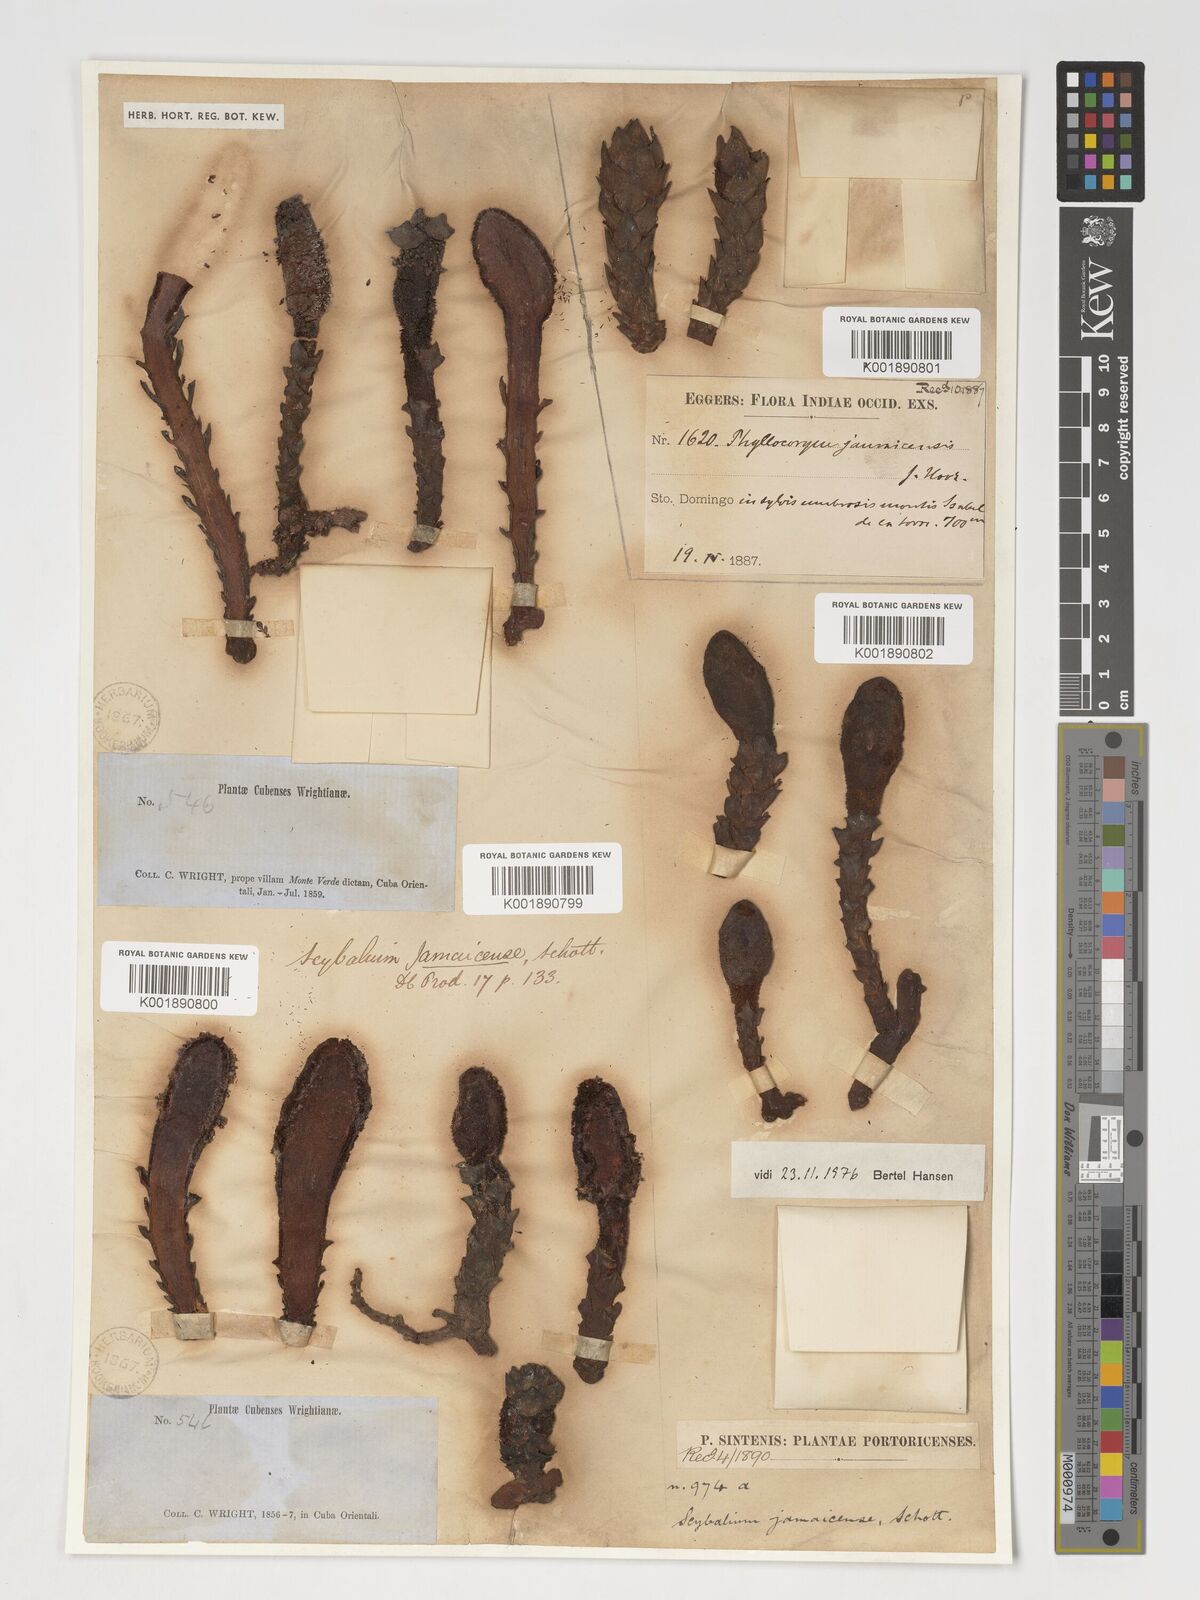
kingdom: Plantae
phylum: Tracheophyta
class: Magnoliopsida
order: Santalales
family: Balanophoraceae
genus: Scybalium
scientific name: Scybalium jamaicense
